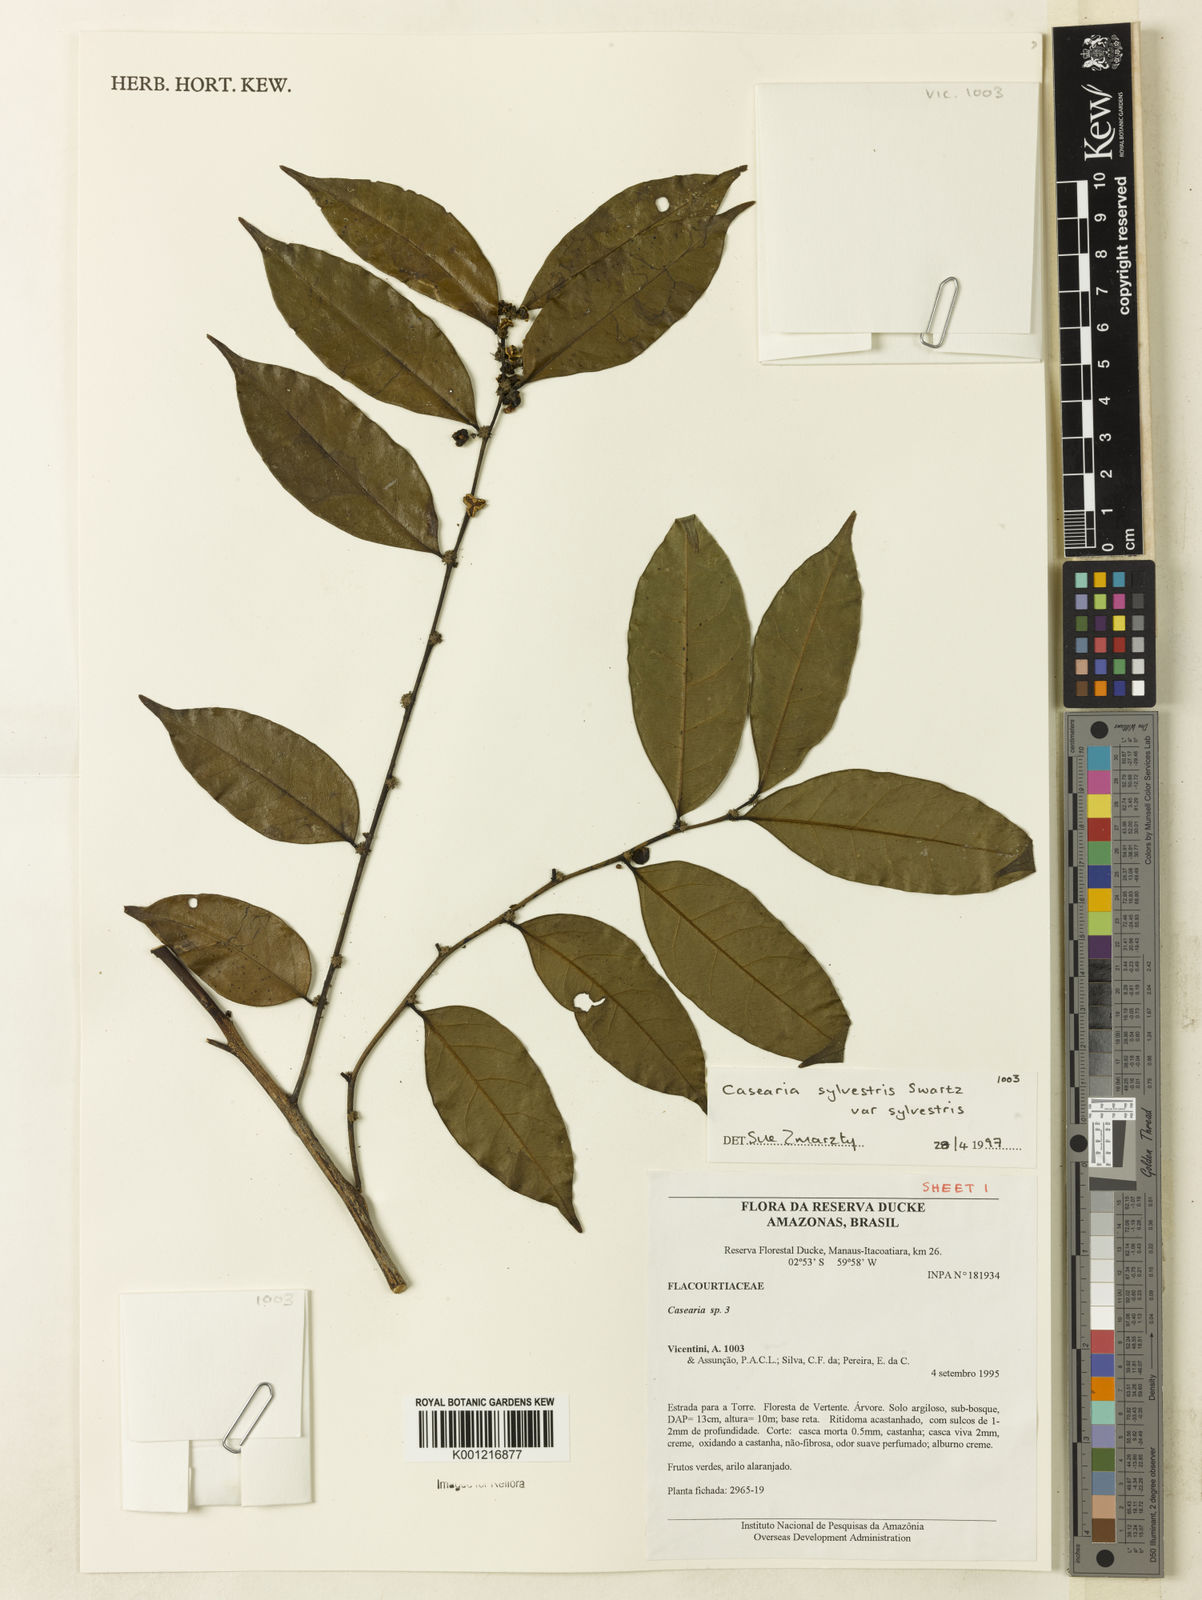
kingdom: Plantae
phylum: Tracheophyta
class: Magnoliopsida
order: Malpighiales
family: Salicaceae
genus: Casearia
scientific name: Casearia sylvestris
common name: Wild sage
